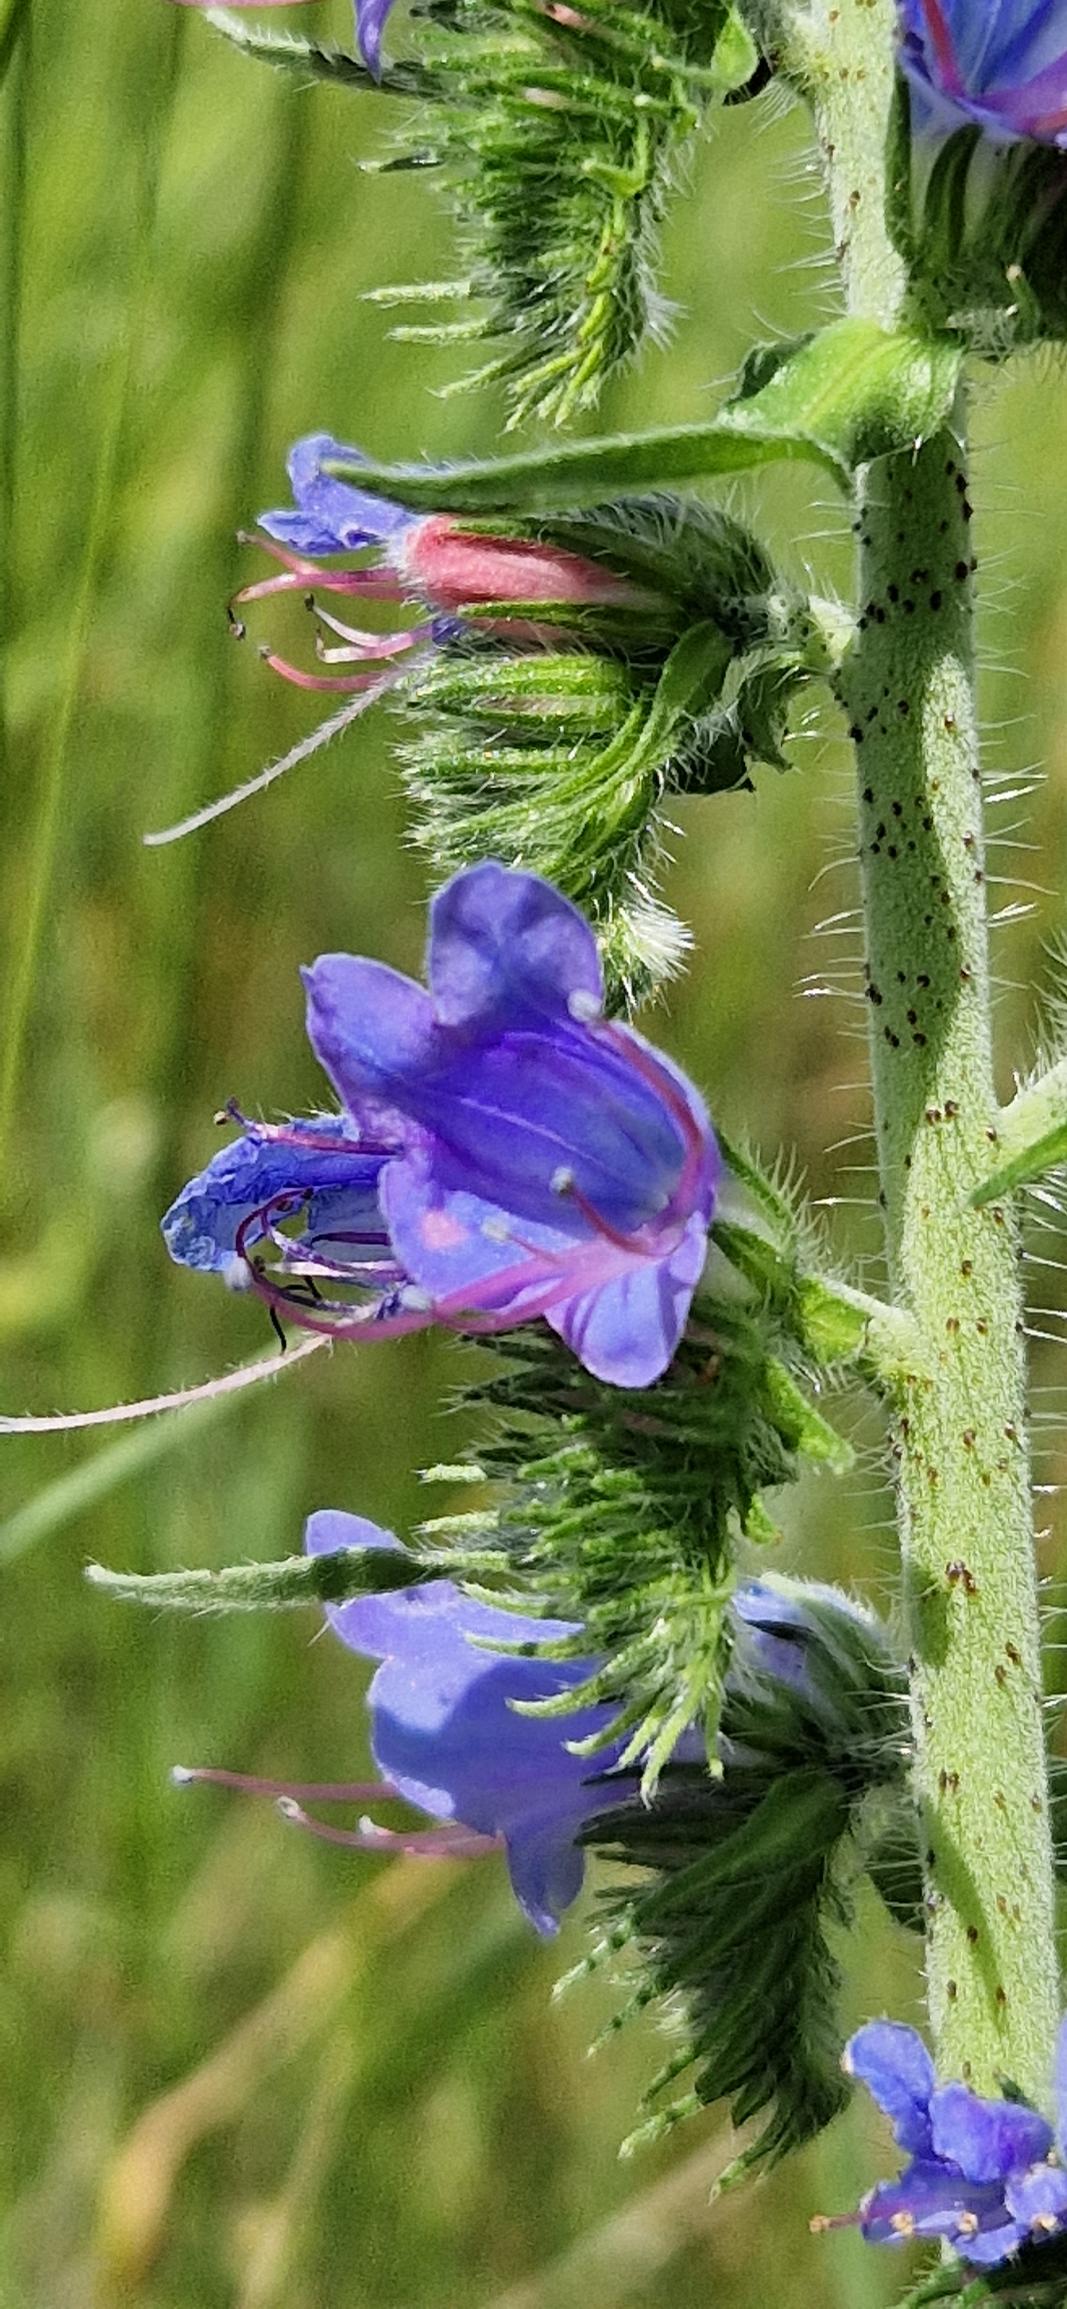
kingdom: Plantae
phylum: Tracheophyta
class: Magnoliopsida
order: Boraginales
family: Boraginaceae
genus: Echium
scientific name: Echium vulgare
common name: Slangehoved
